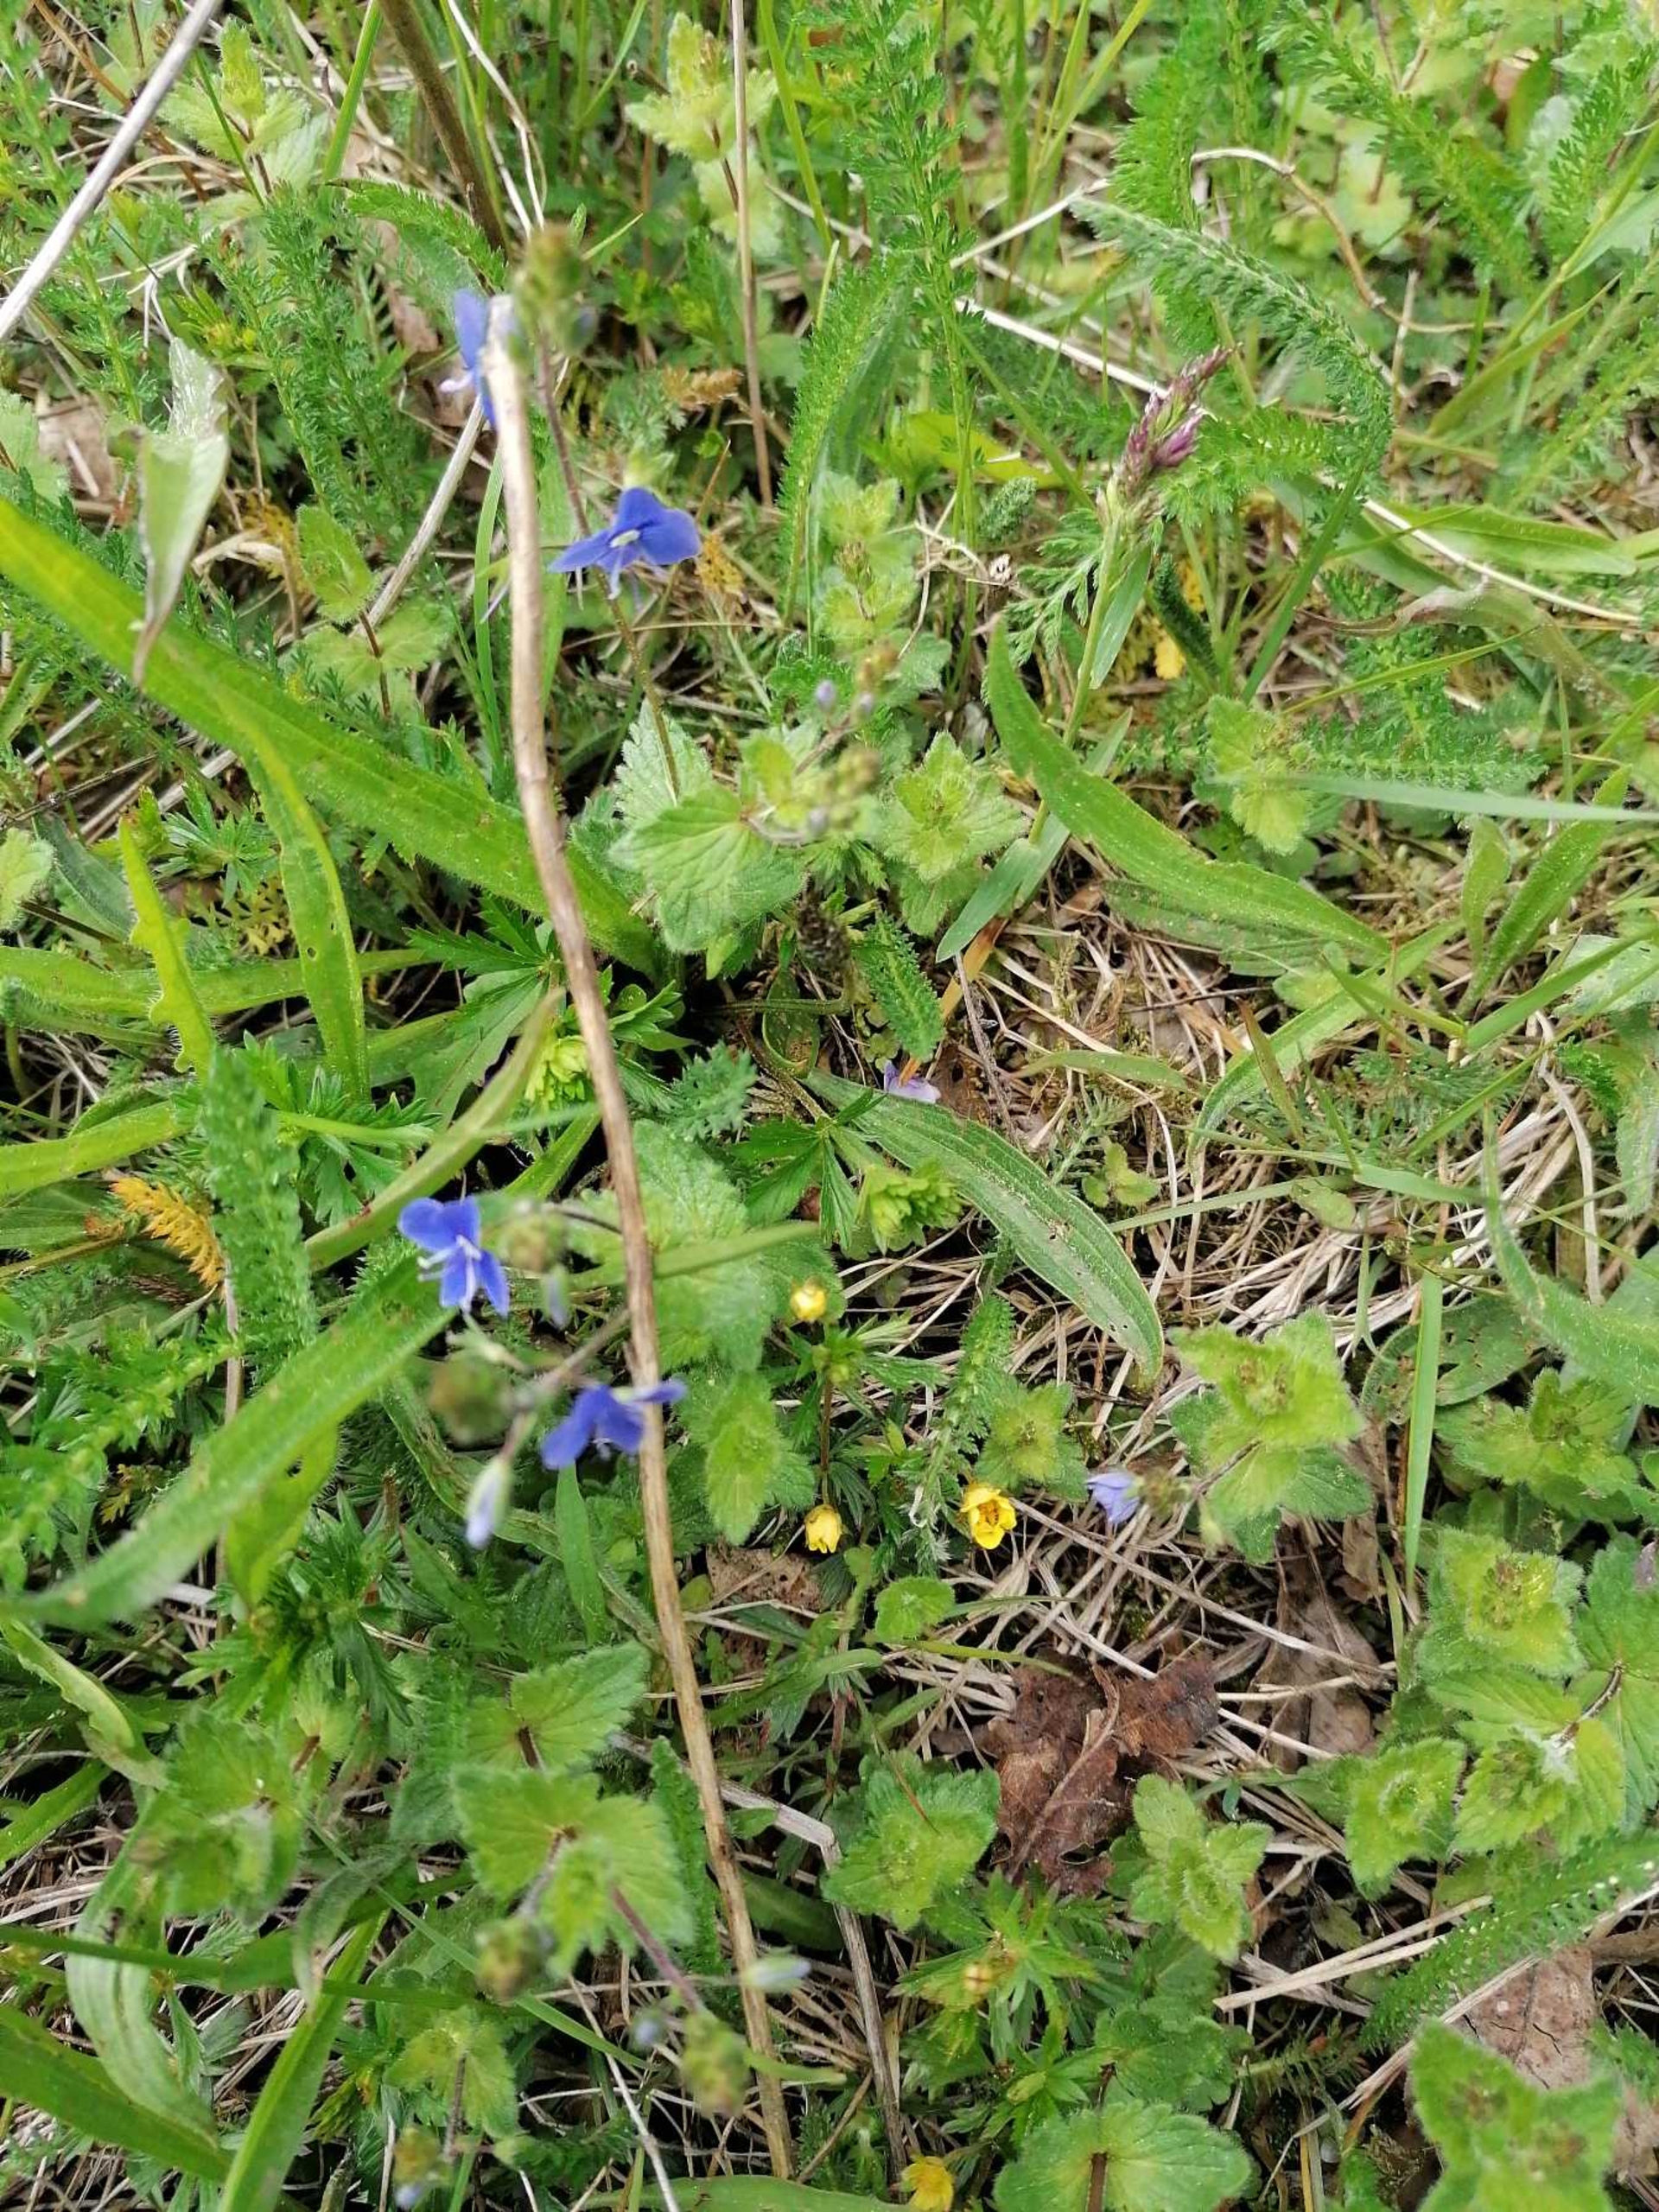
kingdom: Plantae
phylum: Tracheophyta
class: Magnoliopsida
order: Lamiales
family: Plantaginaceae
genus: Veronica
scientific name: Veronica chamaedrys
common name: Tveskægget ærenpris
